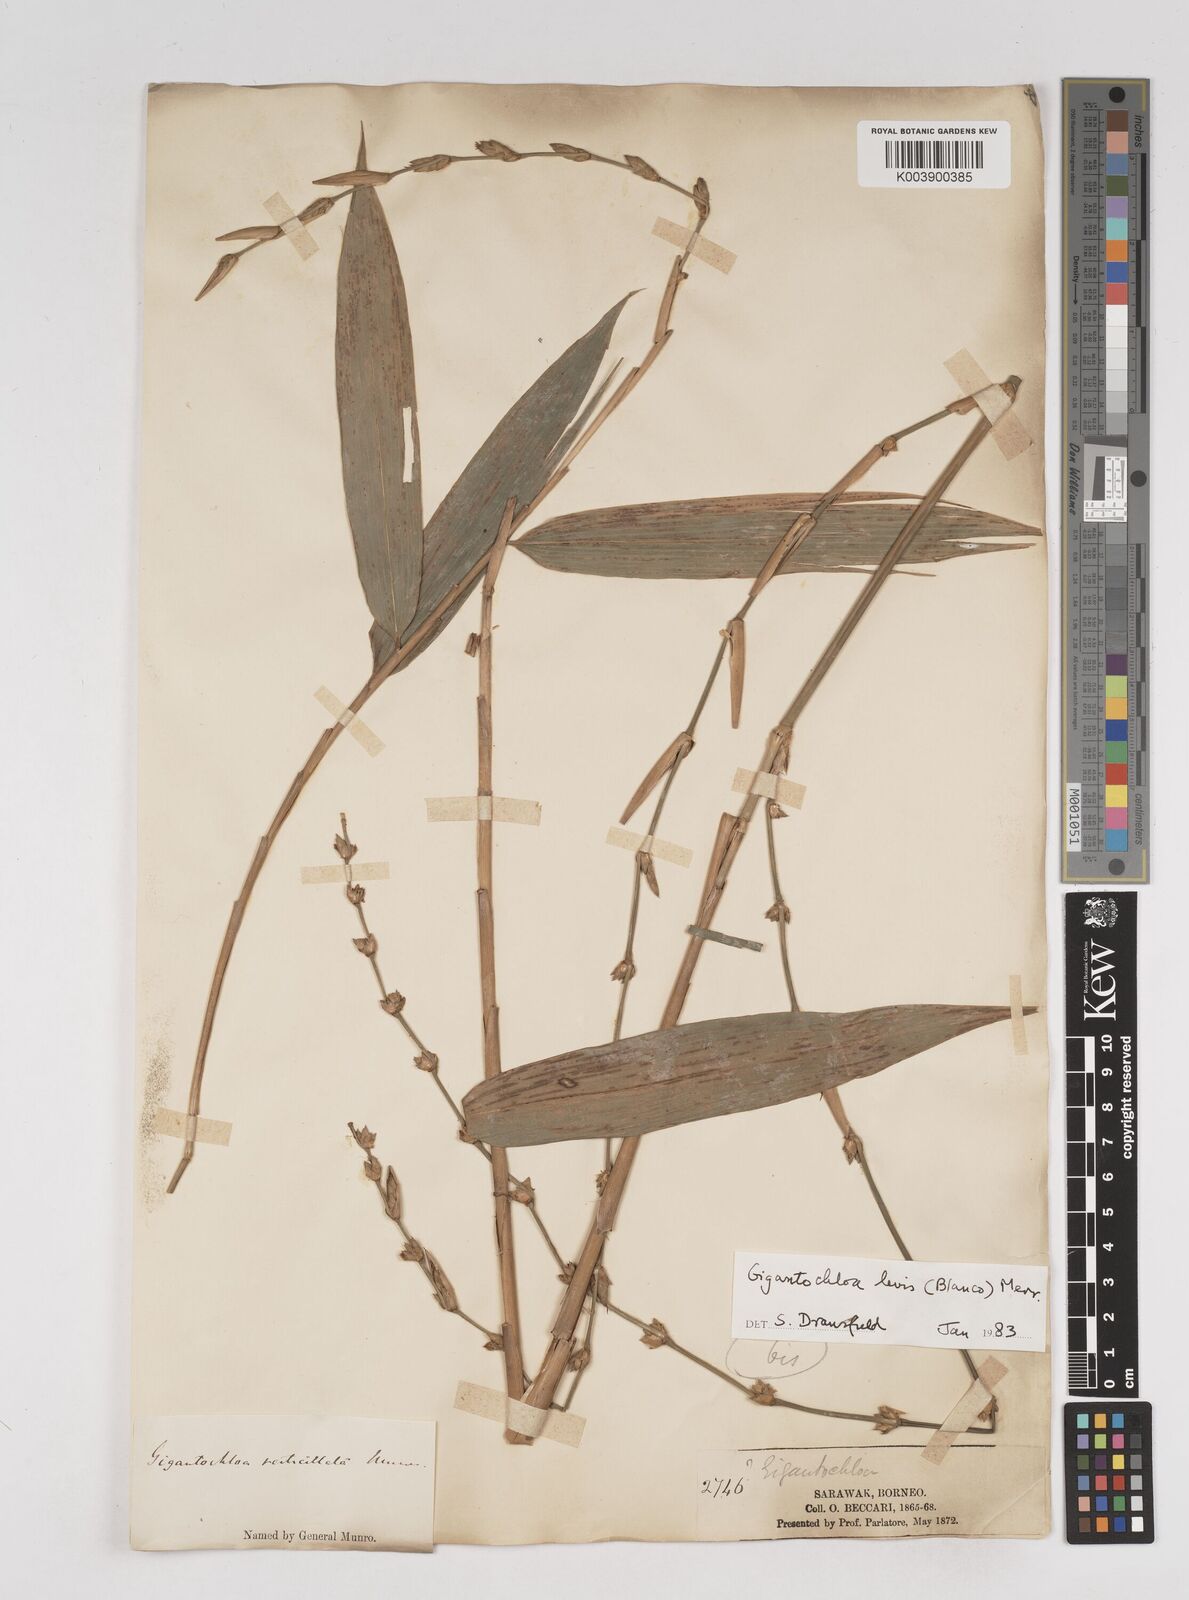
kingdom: Plantae
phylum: Tracheophyta
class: Liliopsida
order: Poales
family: Poaceae
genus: Gigantochloa
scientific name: Gigantochloa
